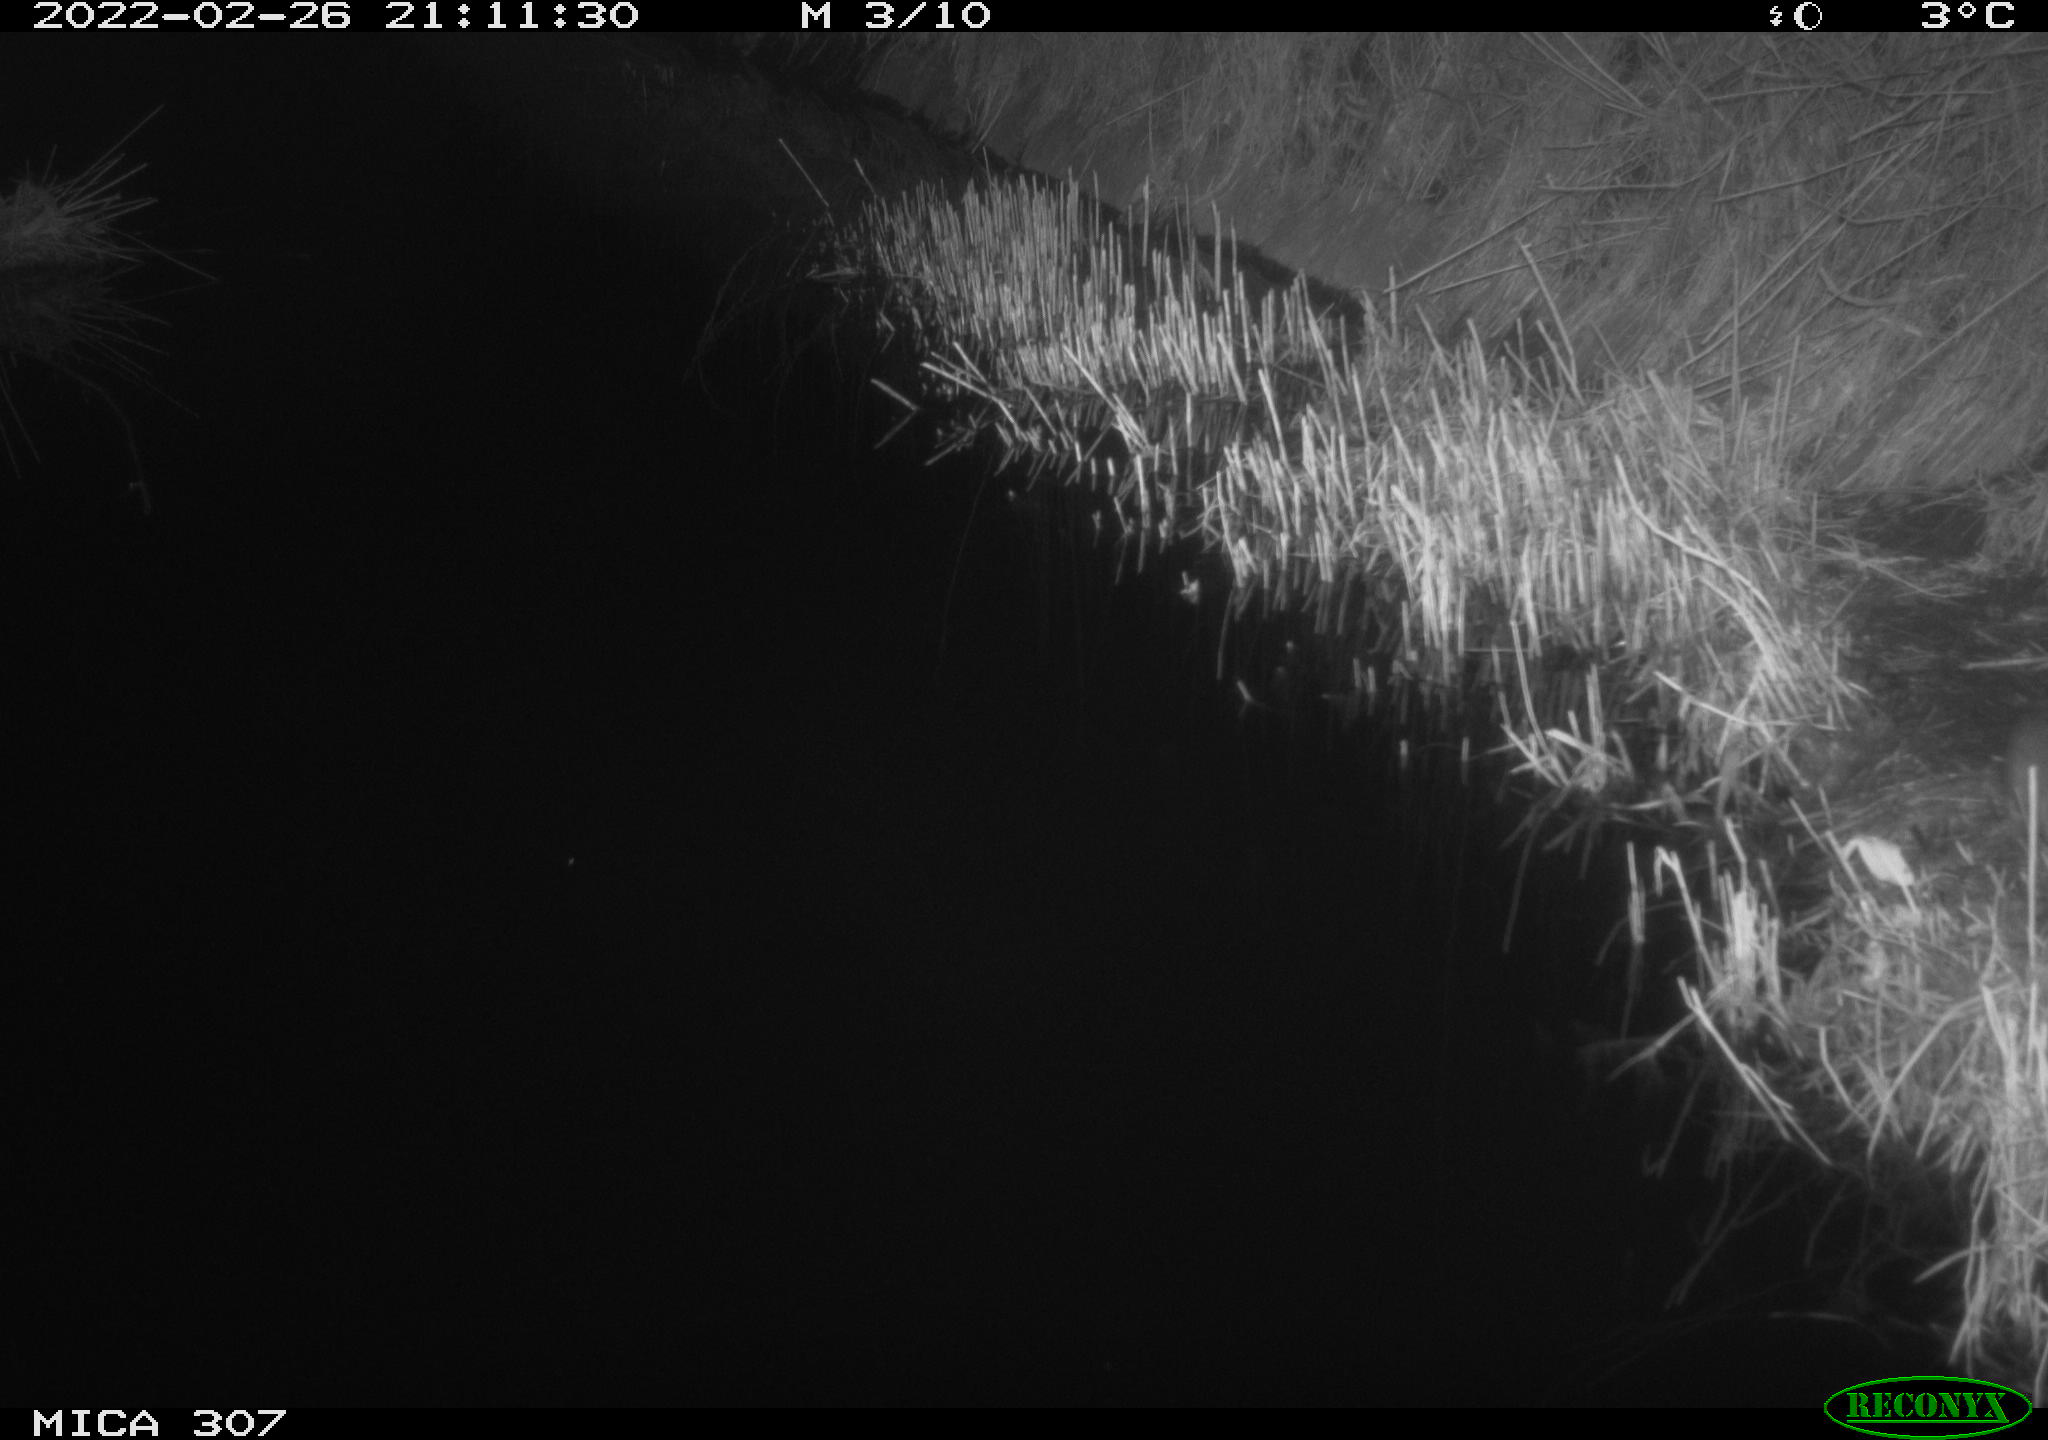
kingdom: Animalia
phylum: Chordata
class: Mammalia
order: Rodentia
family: Muridae
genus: Rattus
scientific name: Rattus norvegicus
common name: Brown rat
